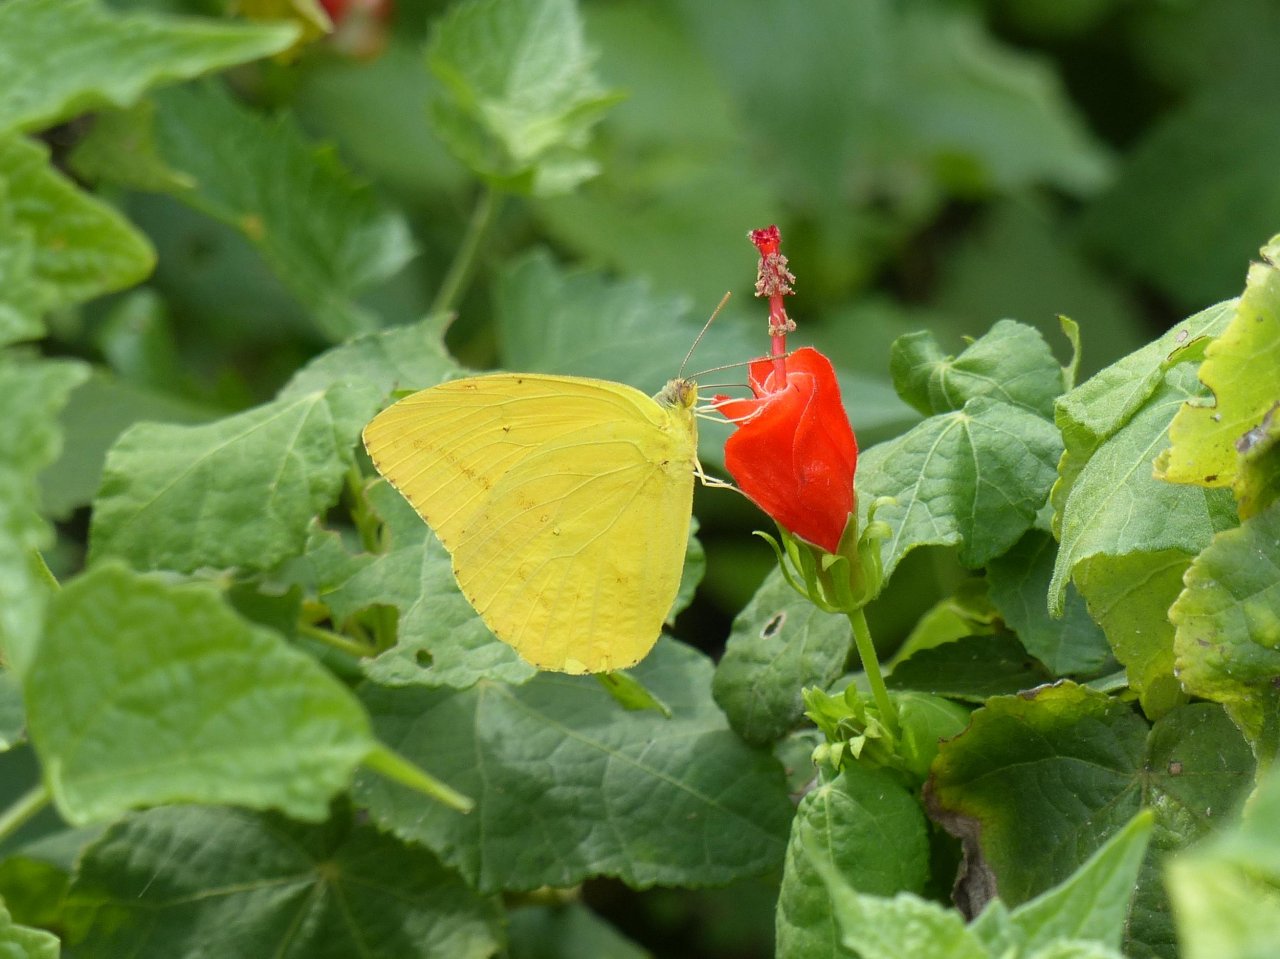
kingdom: Animalia
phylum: Arthropoda
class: Insecta
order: Lepidoptera
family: Pieridae
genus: Phoebis
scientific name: Phoebis agarithe
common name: Large Orange Sulphur
